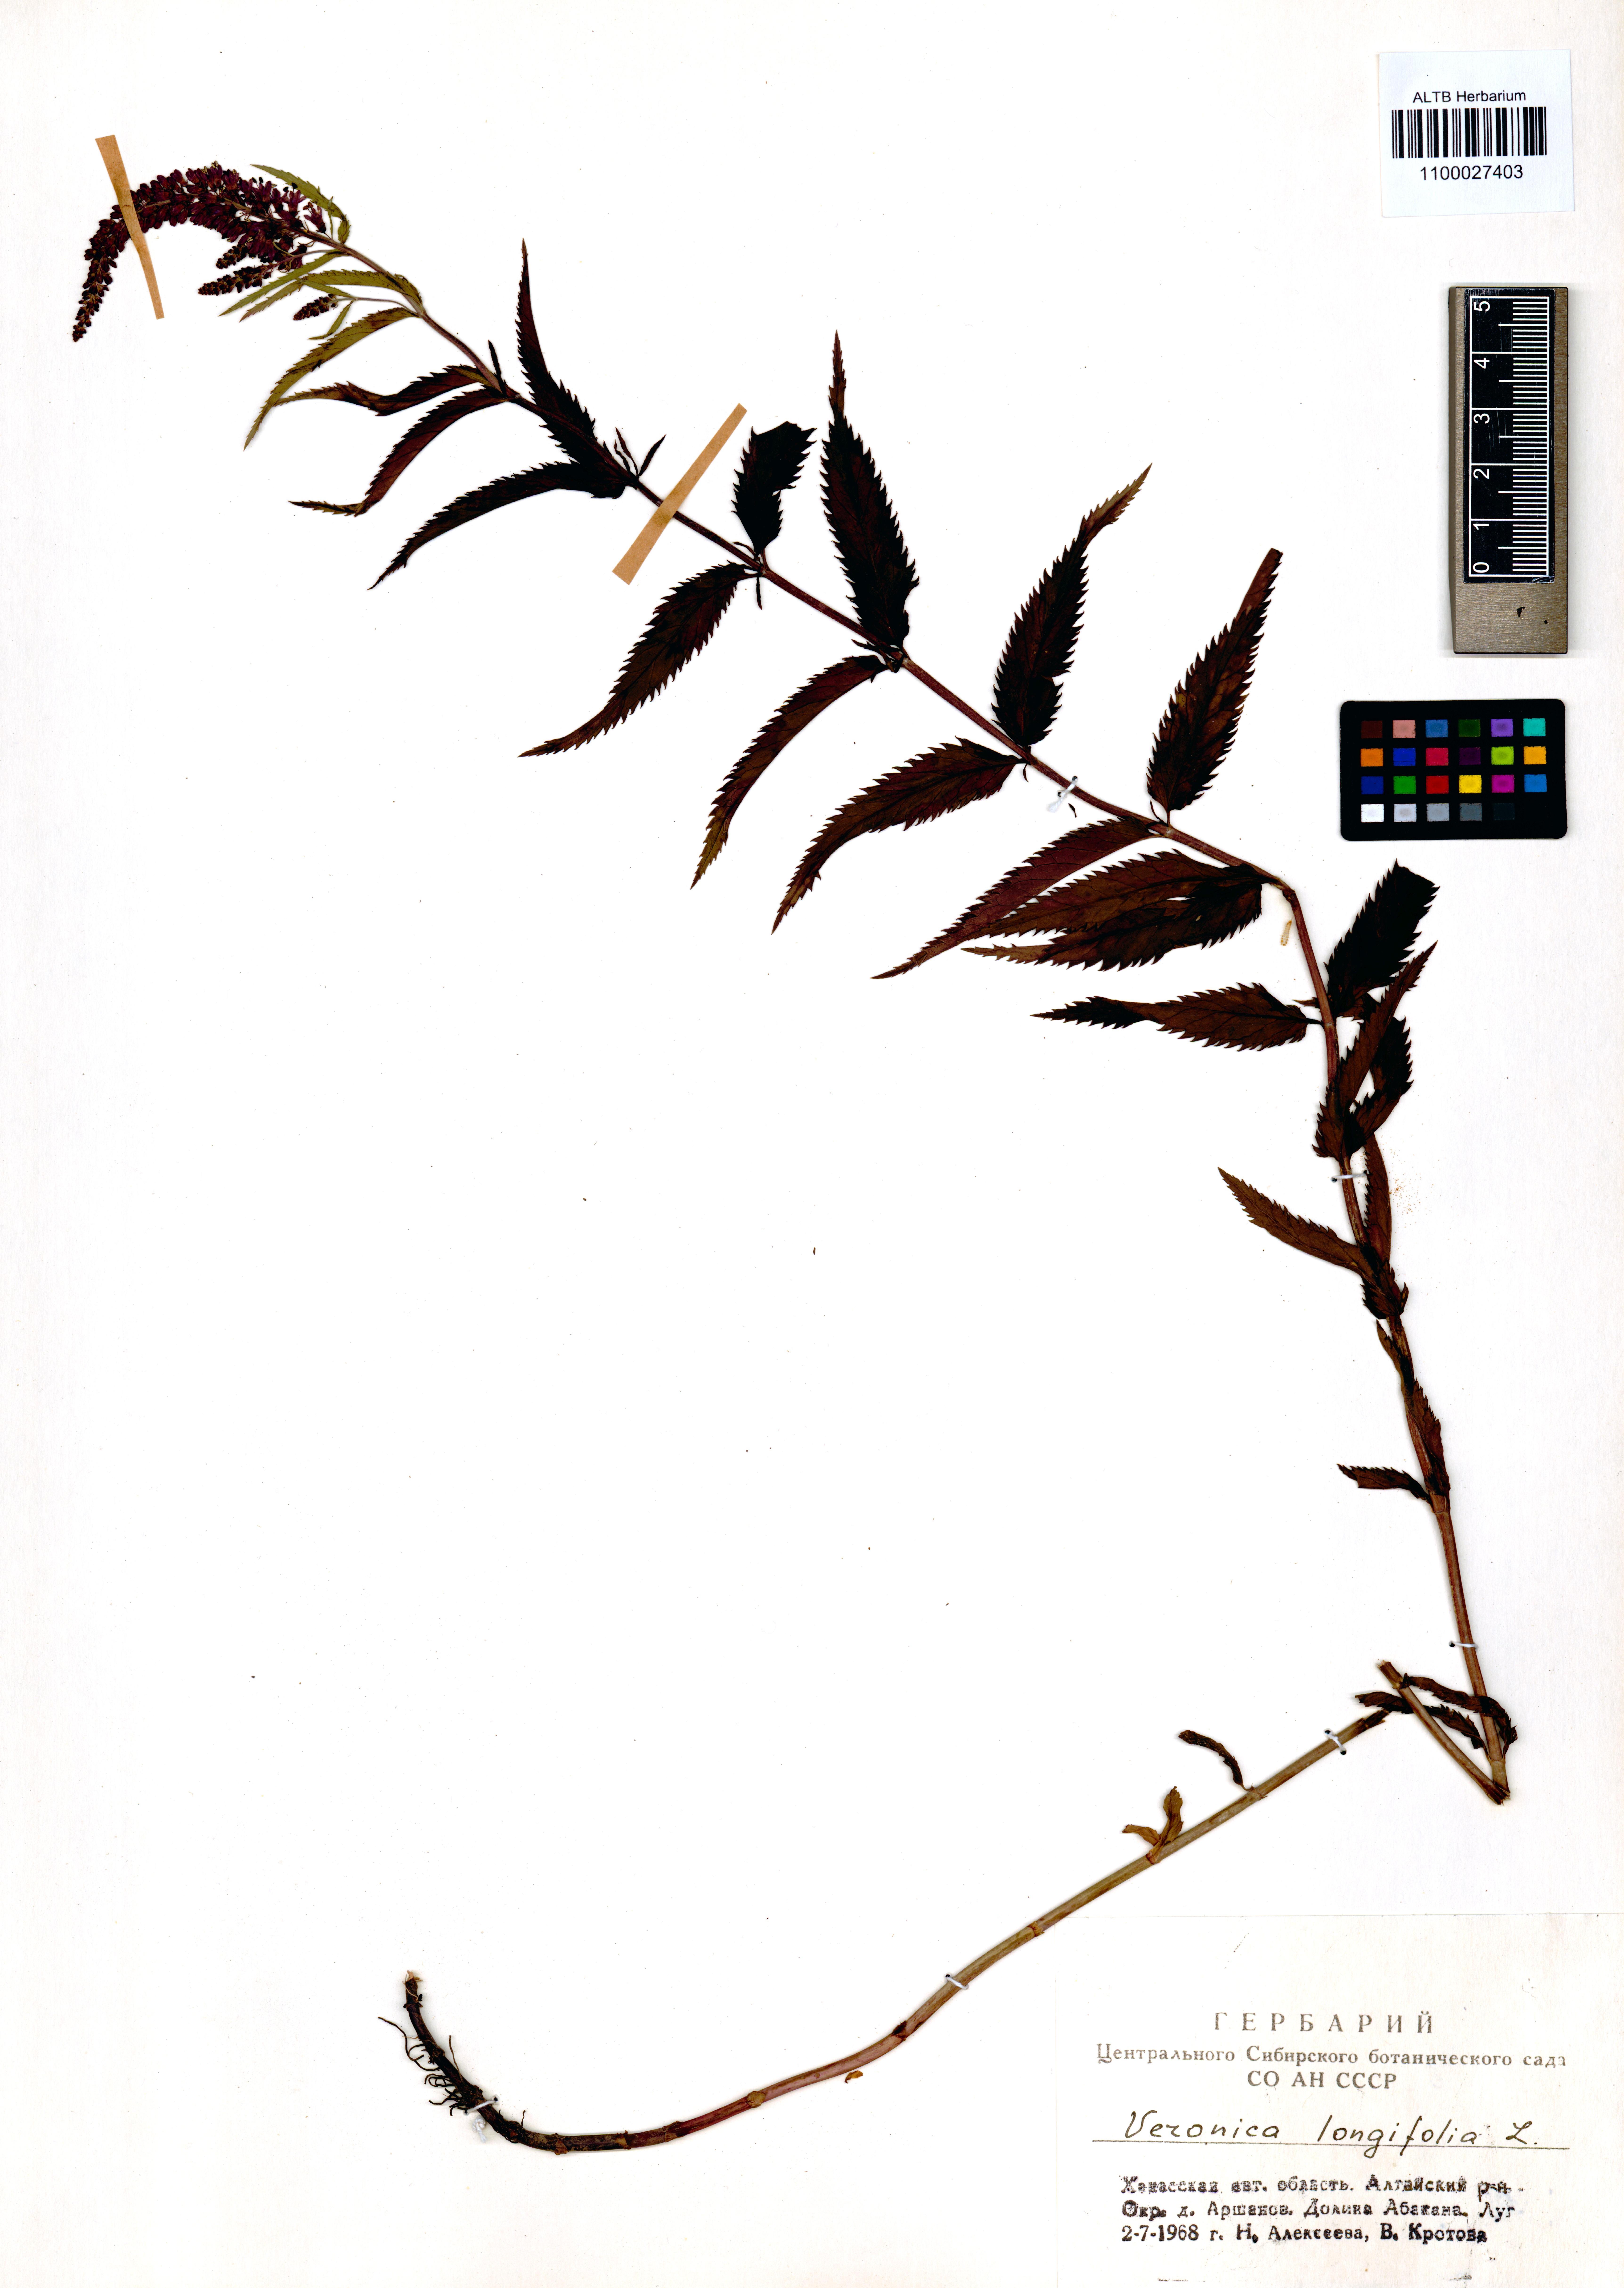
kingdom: Plantae
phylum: Tracheophyta
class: Magnoliopsida
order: Lamiales
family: Plantaginaceae
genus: Veronica
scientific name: Veronica longifolia
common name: Garden speedwell
